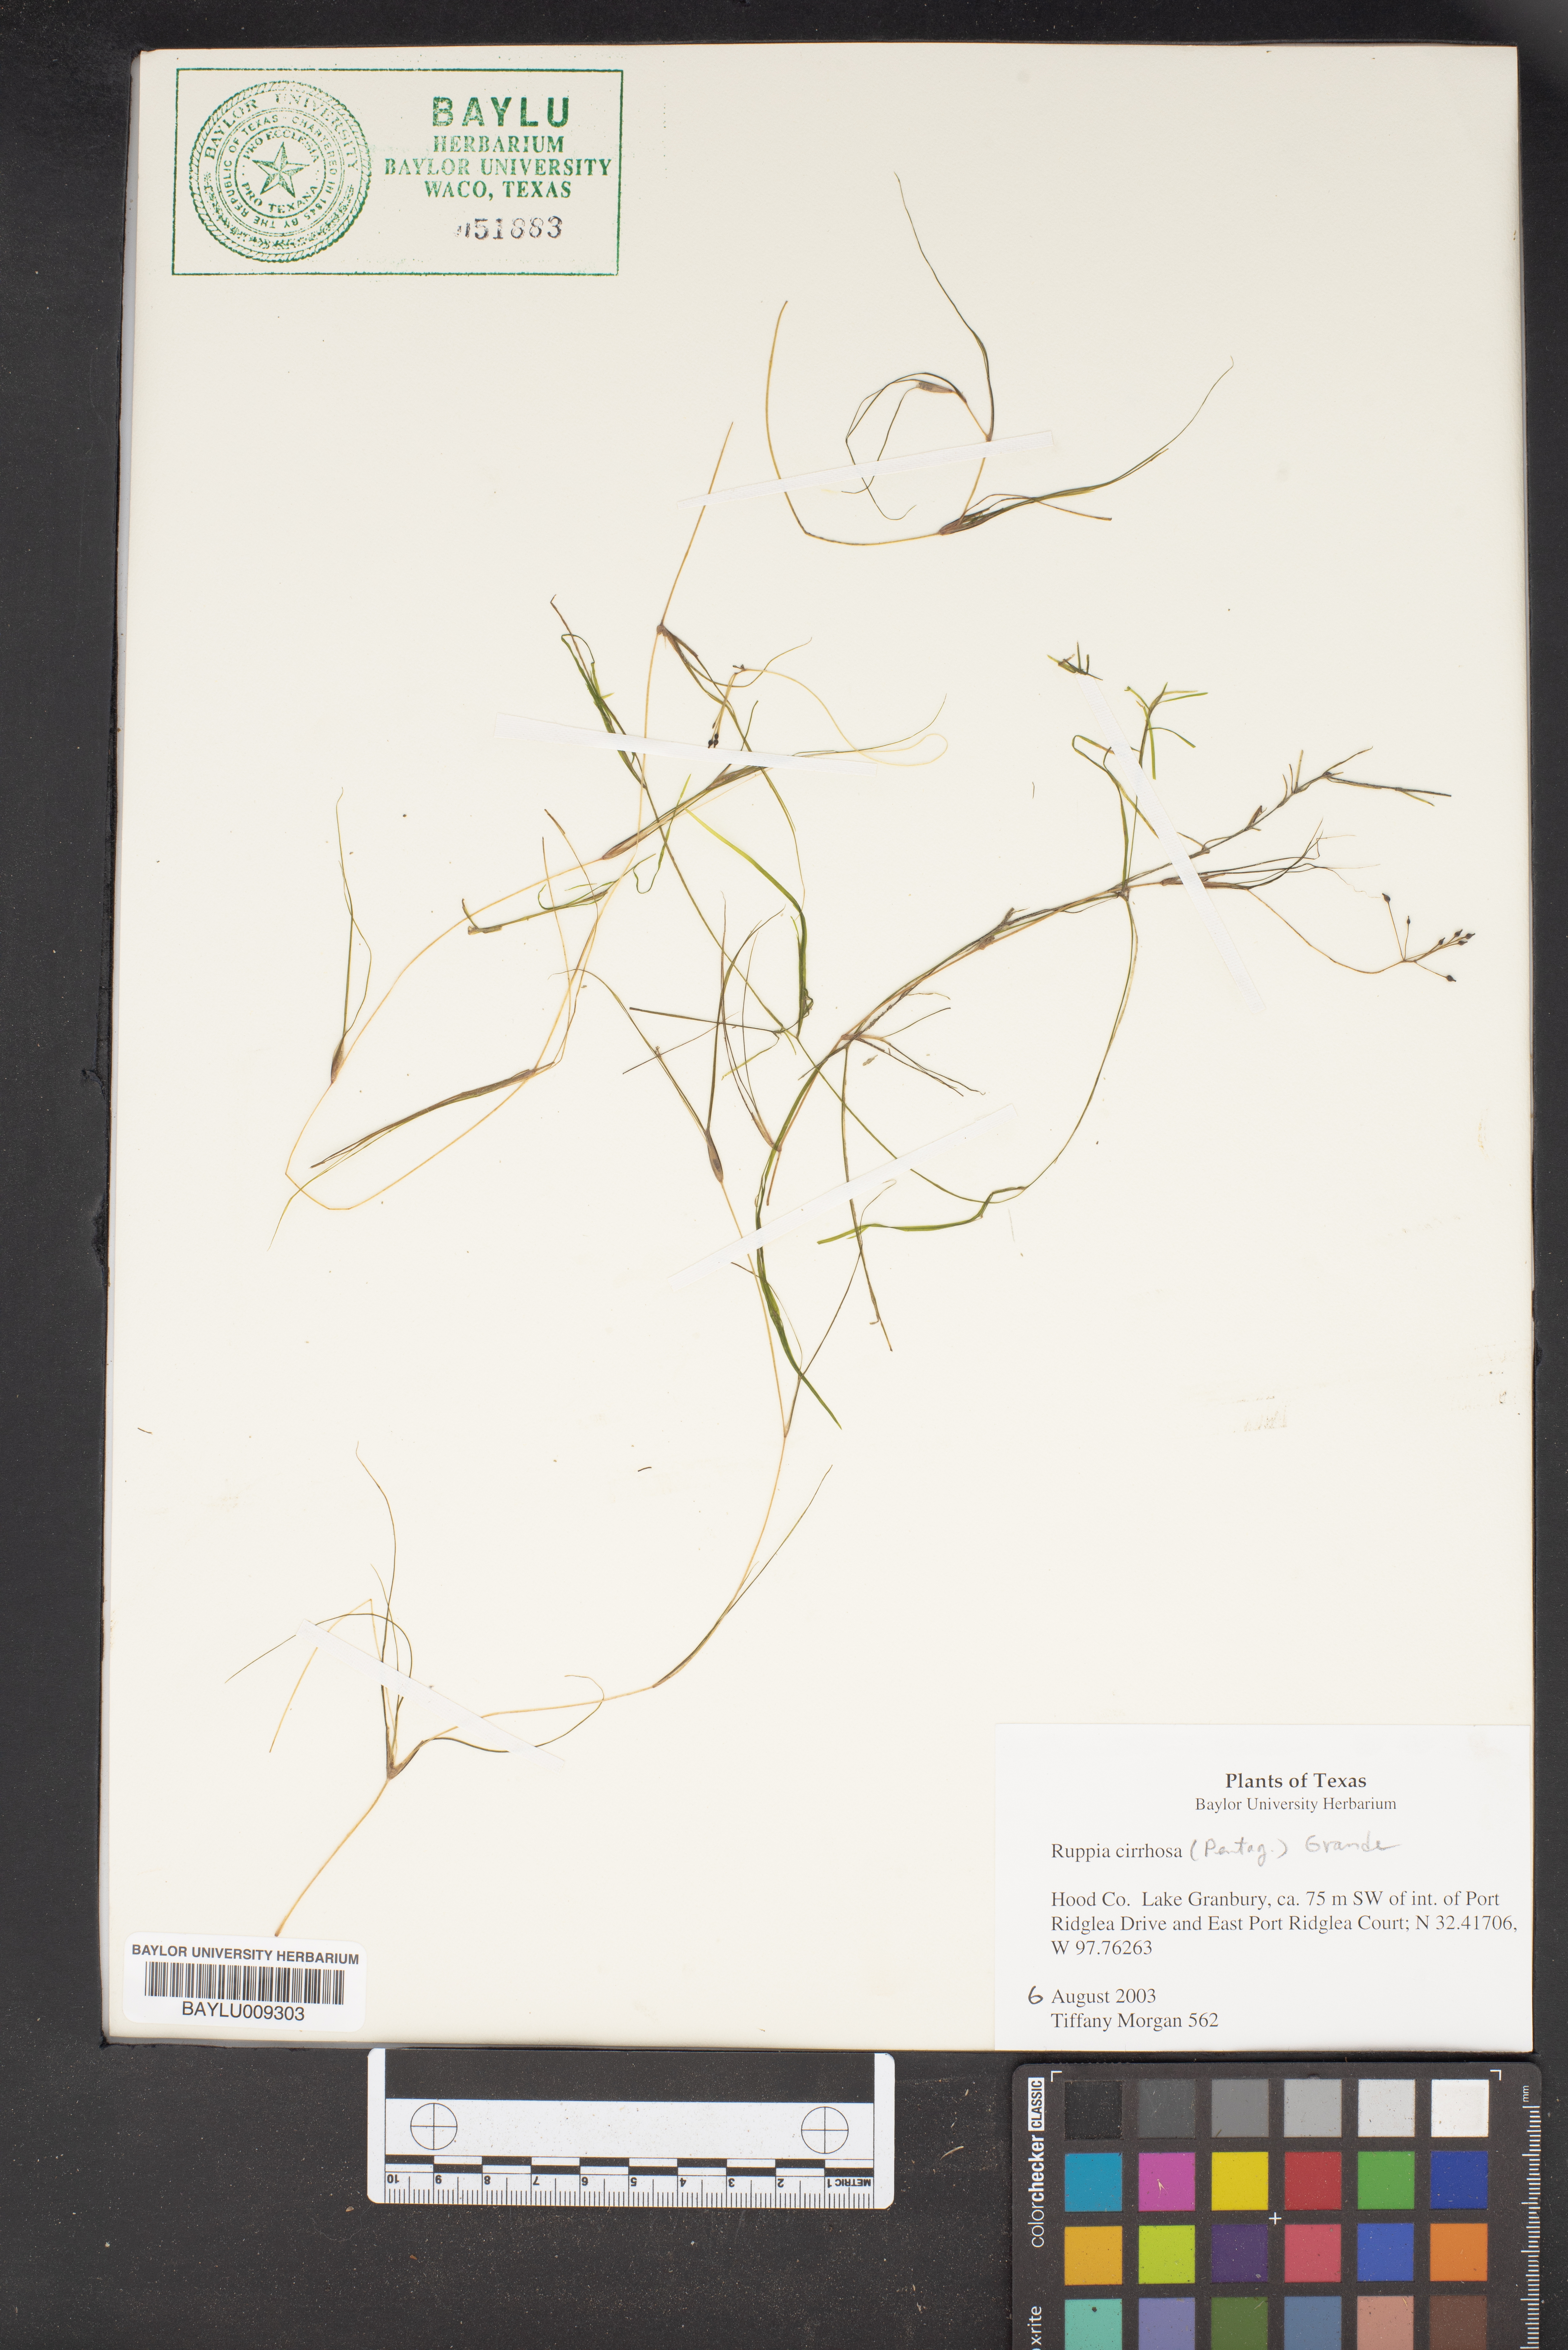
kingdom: Plantae
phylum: Tracheophyta
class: Liliopsida
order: Alismatales
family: Ruppiaceae
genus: Ruppia
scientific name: Ruppia cirrhosa
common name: Spiral tasselweed
